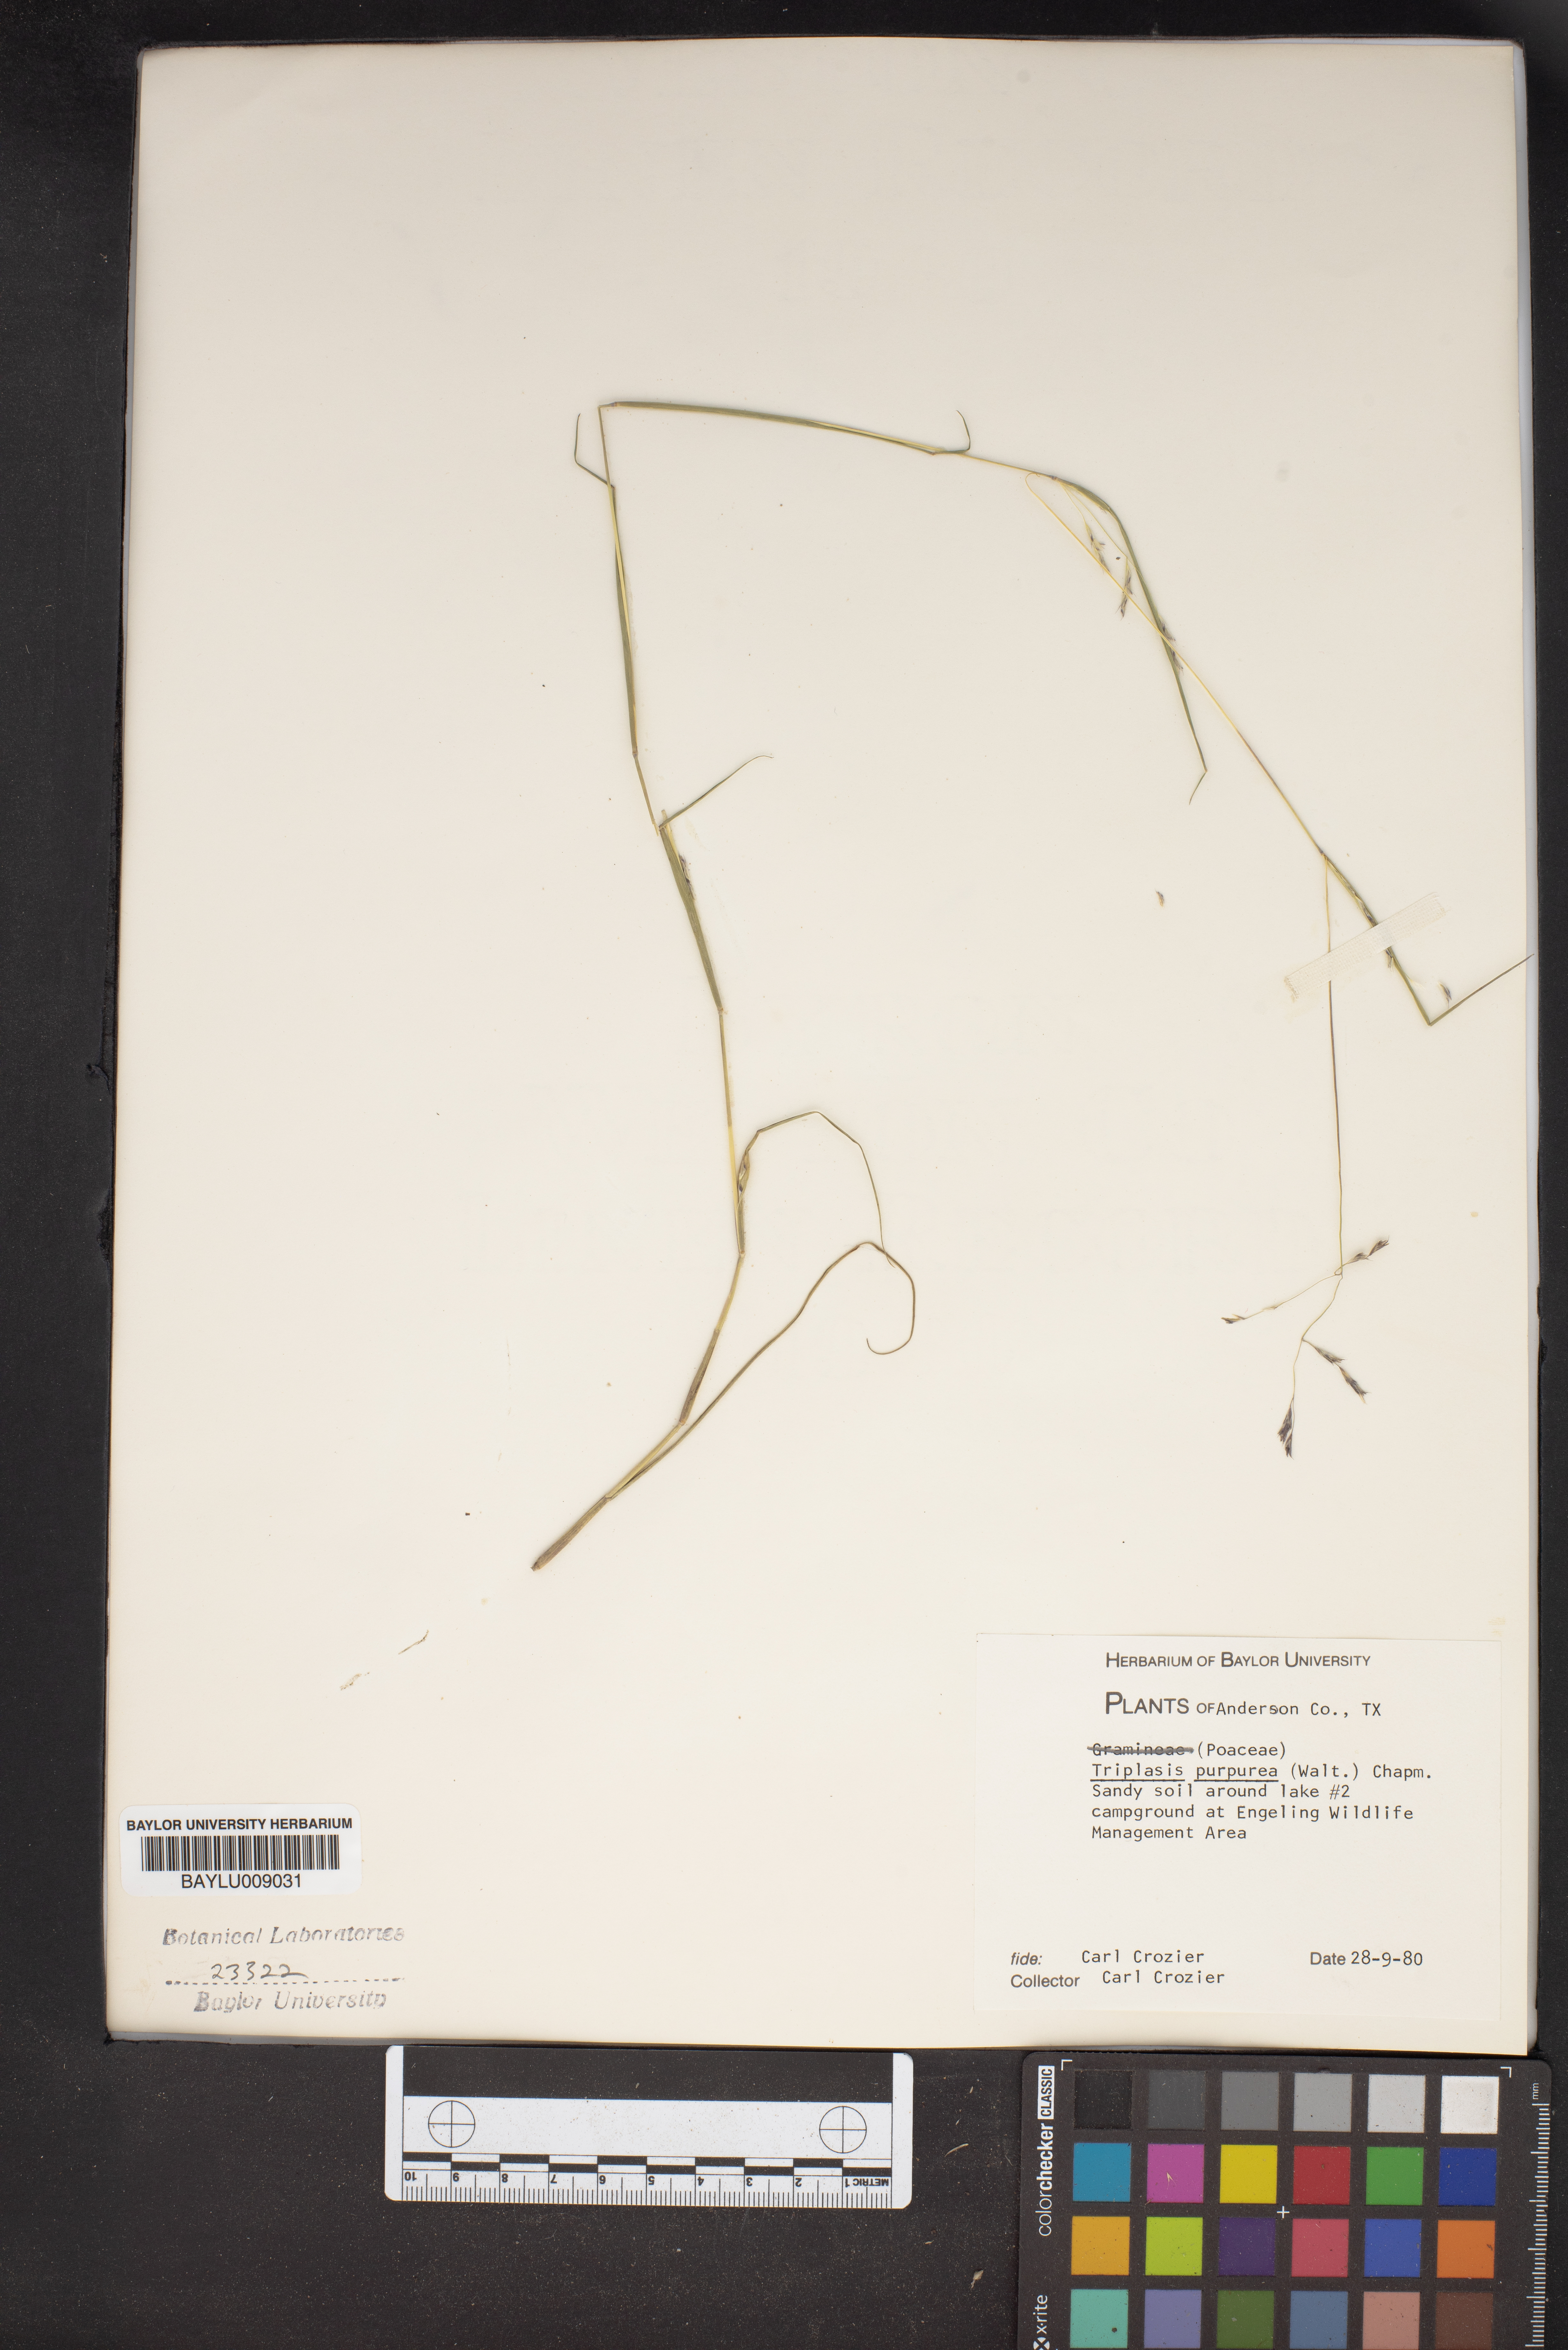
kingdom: Plantae
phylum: Tracheophyta
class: Liliopsida
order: Poales
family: Poaceae
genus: Triplasis
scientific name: Triplasis purpurea
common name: Purple sand grass
